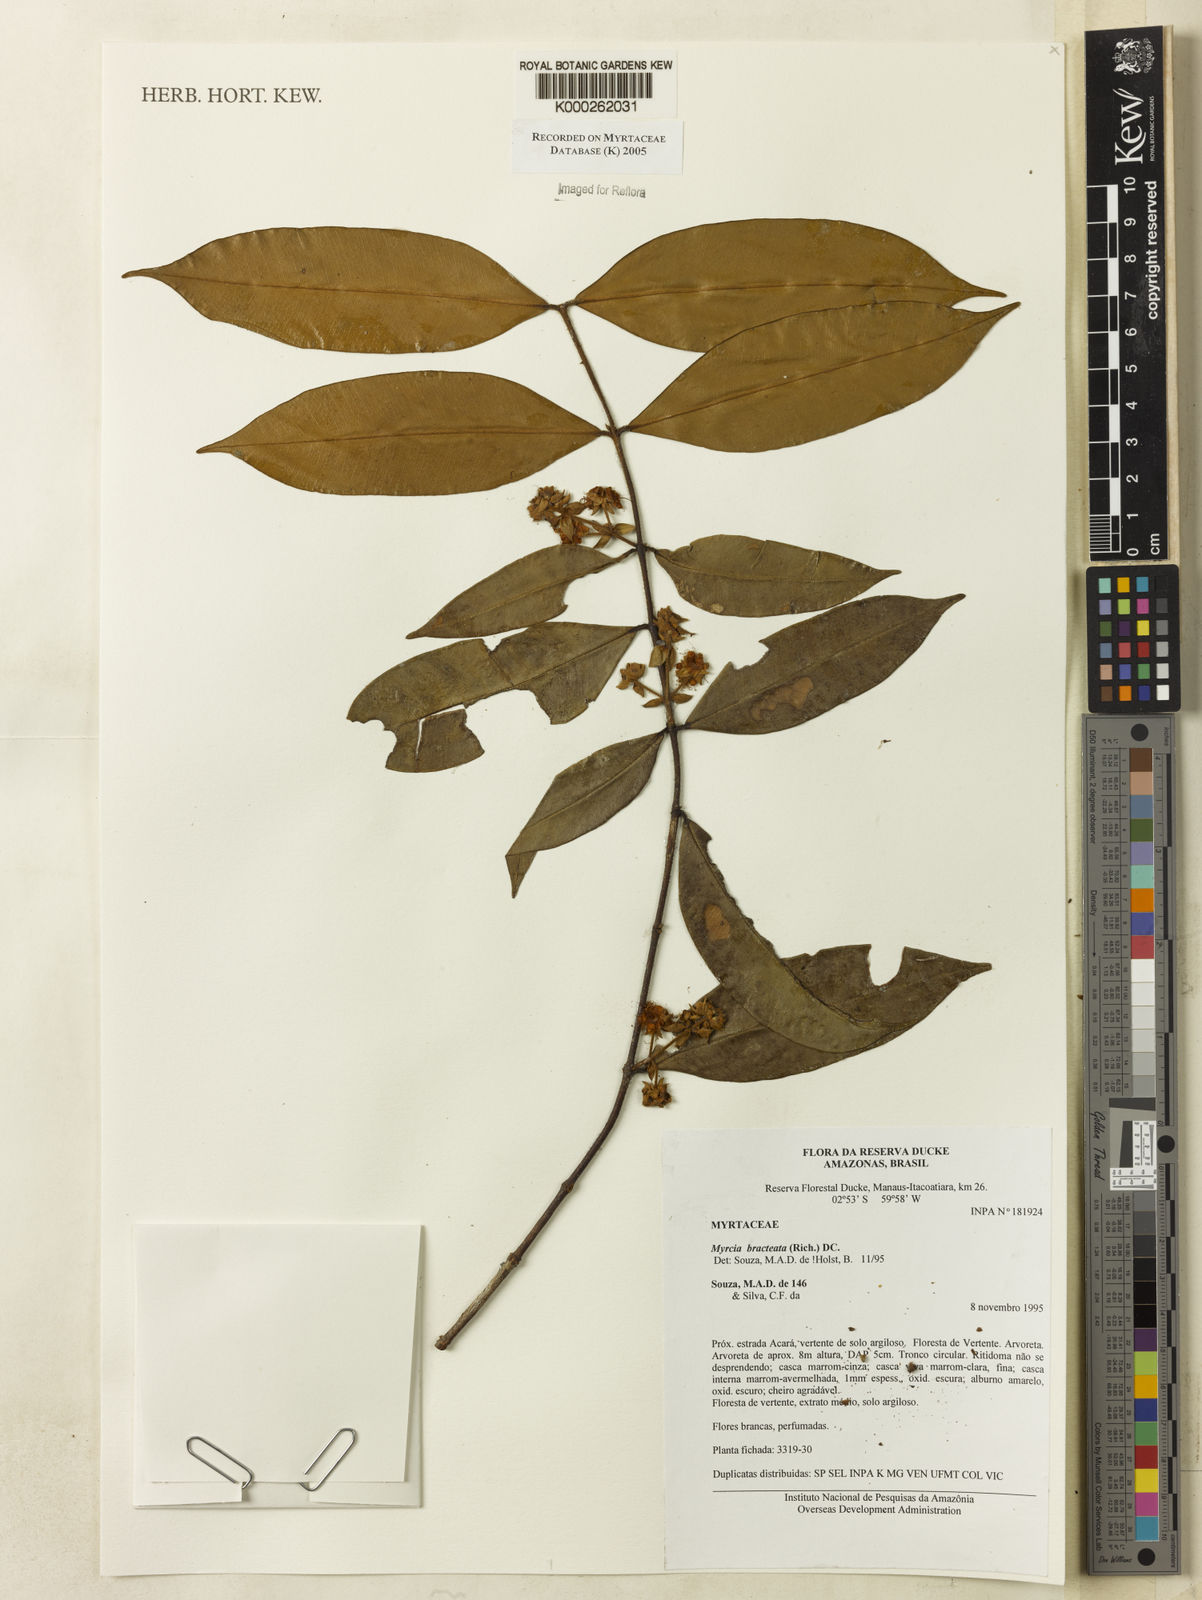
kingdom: Plantae
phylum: Tracheophyta
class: Magnoliopsida
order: Myrtales
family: Myrtaceae
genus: Myrcia
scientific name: Myrcia bracteata
